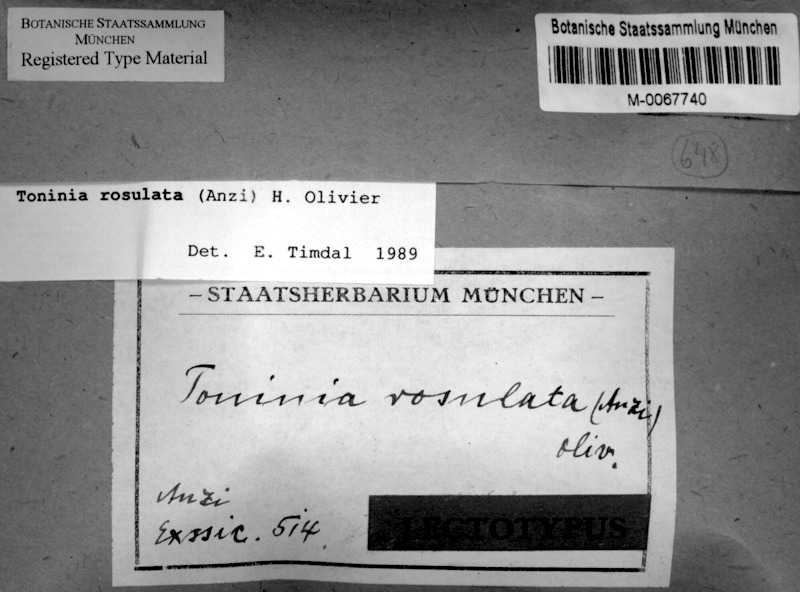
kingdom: Fungi
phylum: Ascomycota
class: Lecanoromycetes
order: Lecanorales
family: Ramalinaceae
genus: Thalloidima
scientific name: Thalloidima rosulatum
